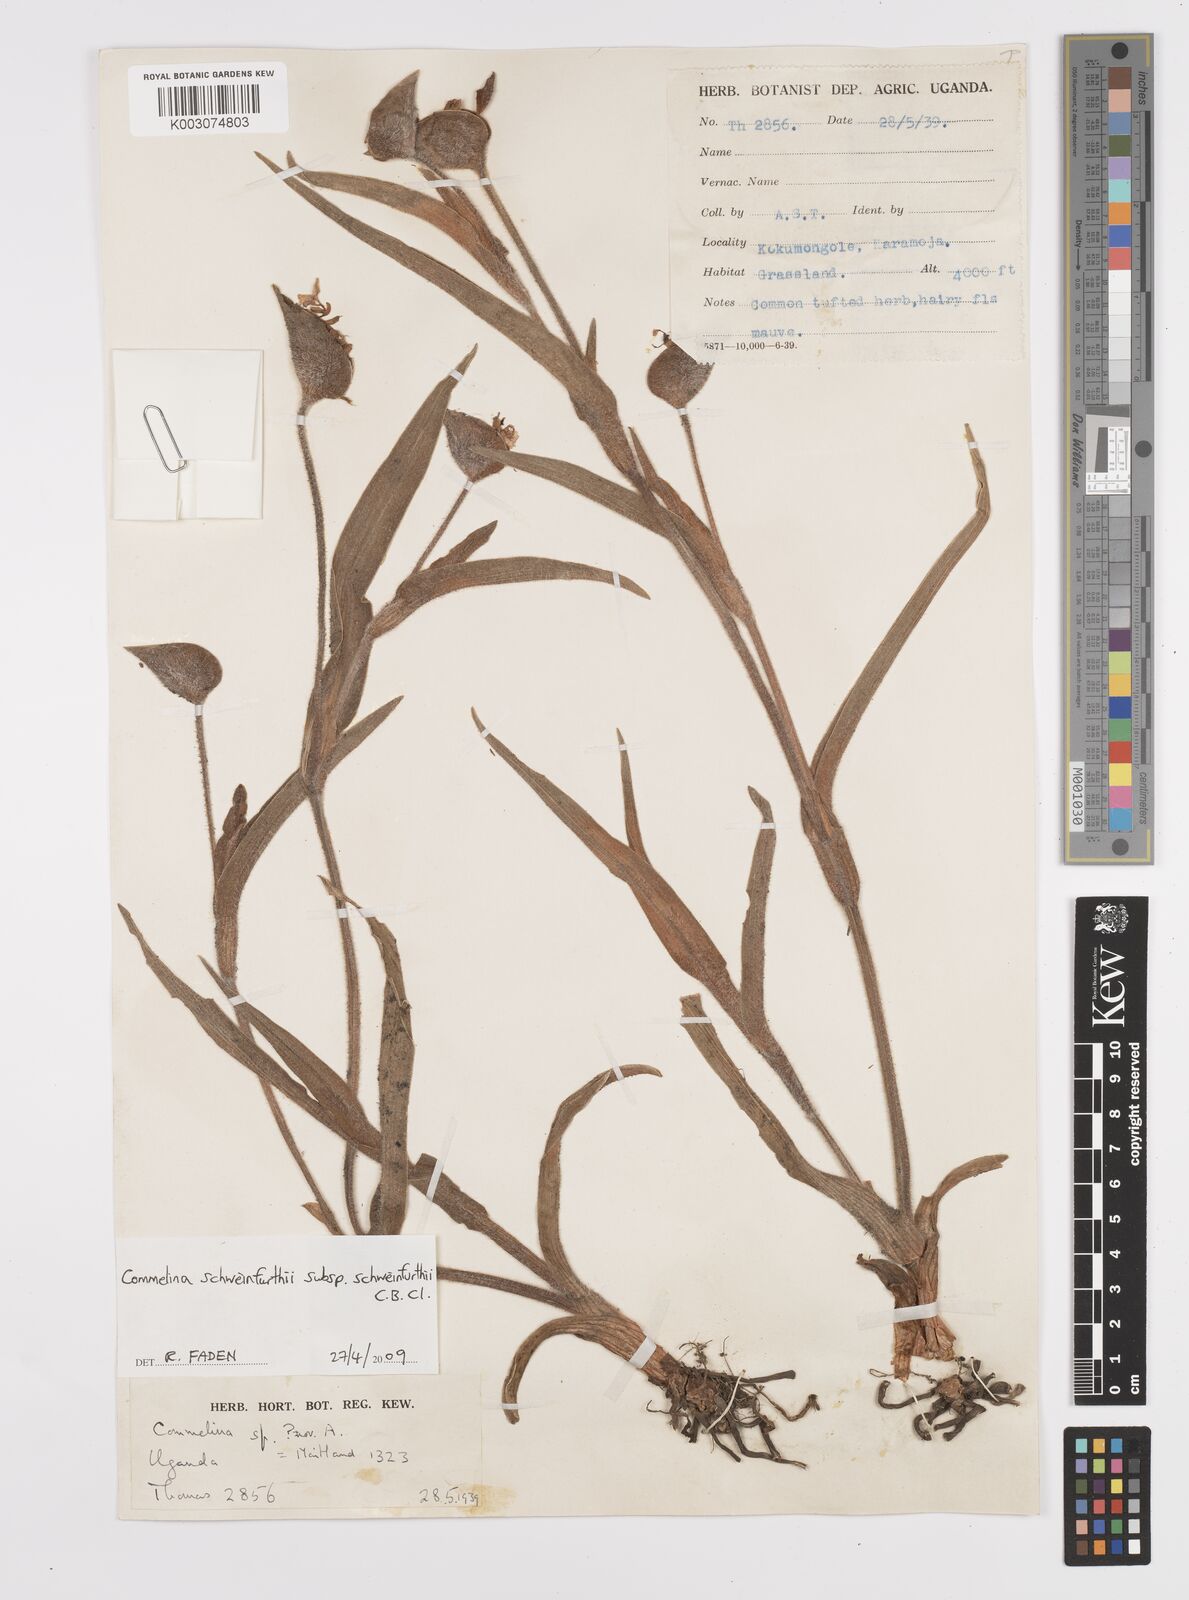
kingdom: Plantae
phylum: Tracheophyta
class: Liliopsida
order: Commelinales
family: Commelinaceae
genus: Commelina
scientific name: Commelina schweinfurthii
